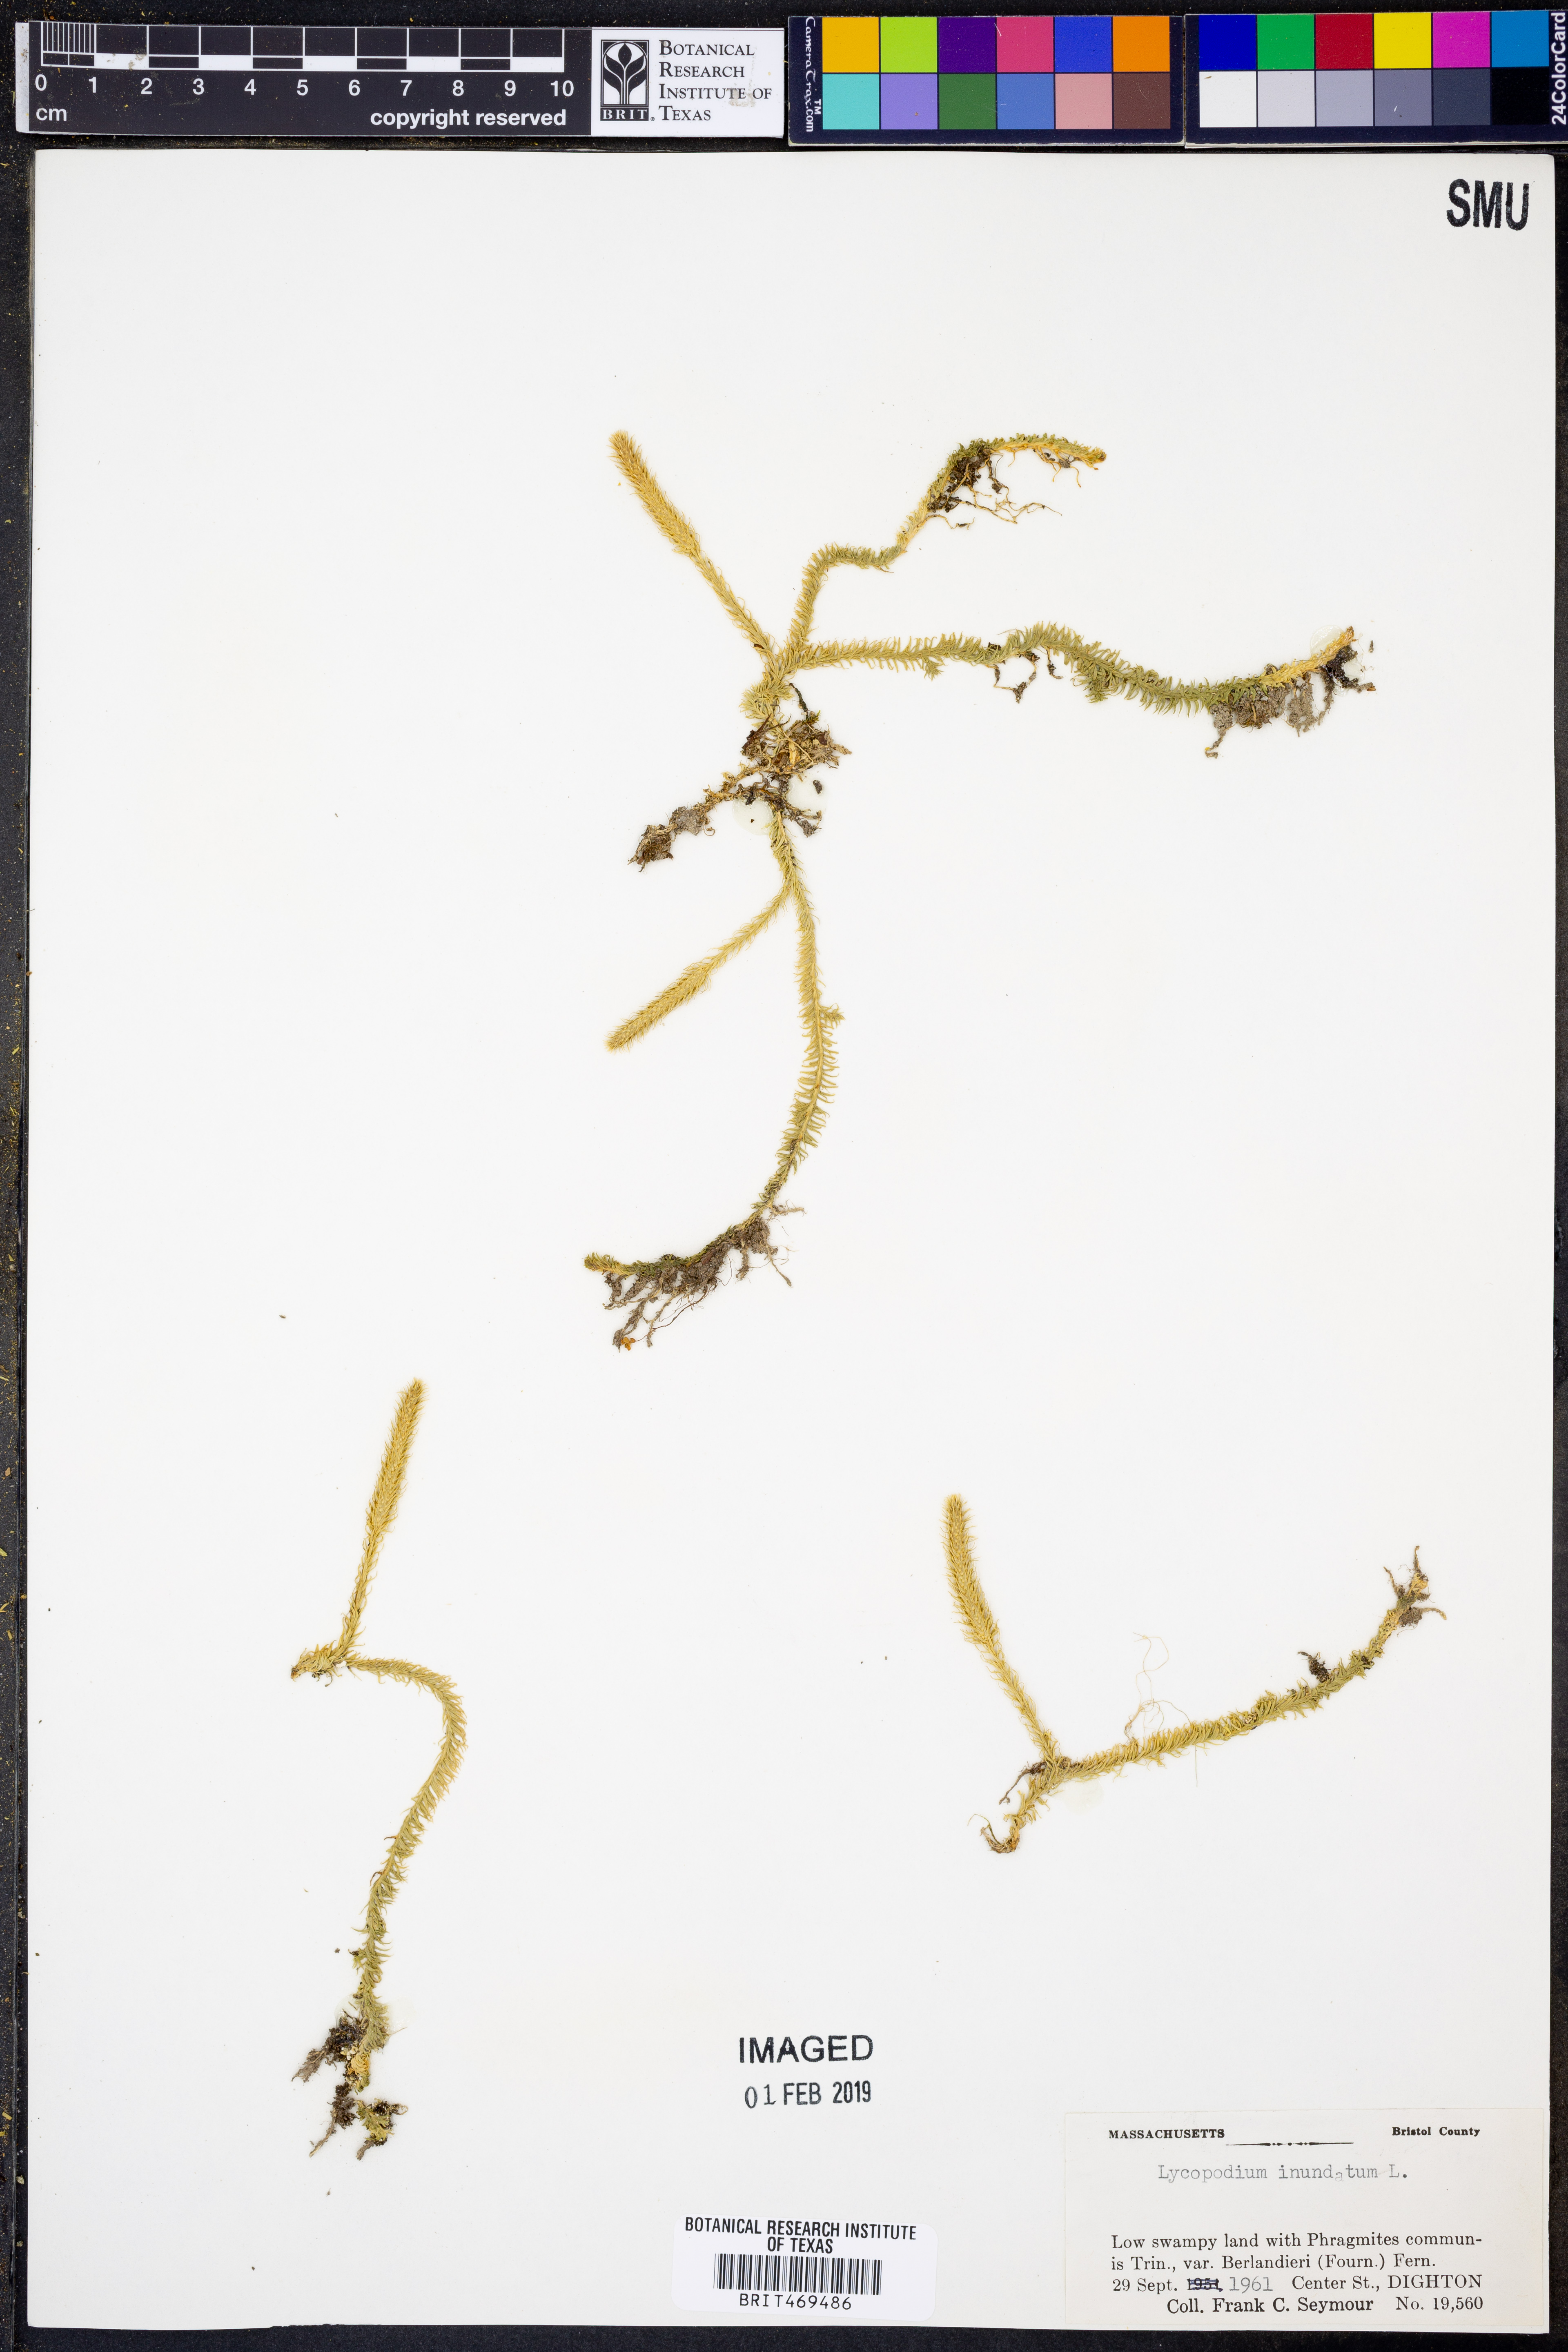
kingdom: Plantae
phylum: Tracheophyta
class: Lycopodiopsida
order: Lycopodiales
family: Lycopodiaceae
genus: Lycopodiella
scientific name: Lycopodiella inundata
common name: Marsh clubmoss
